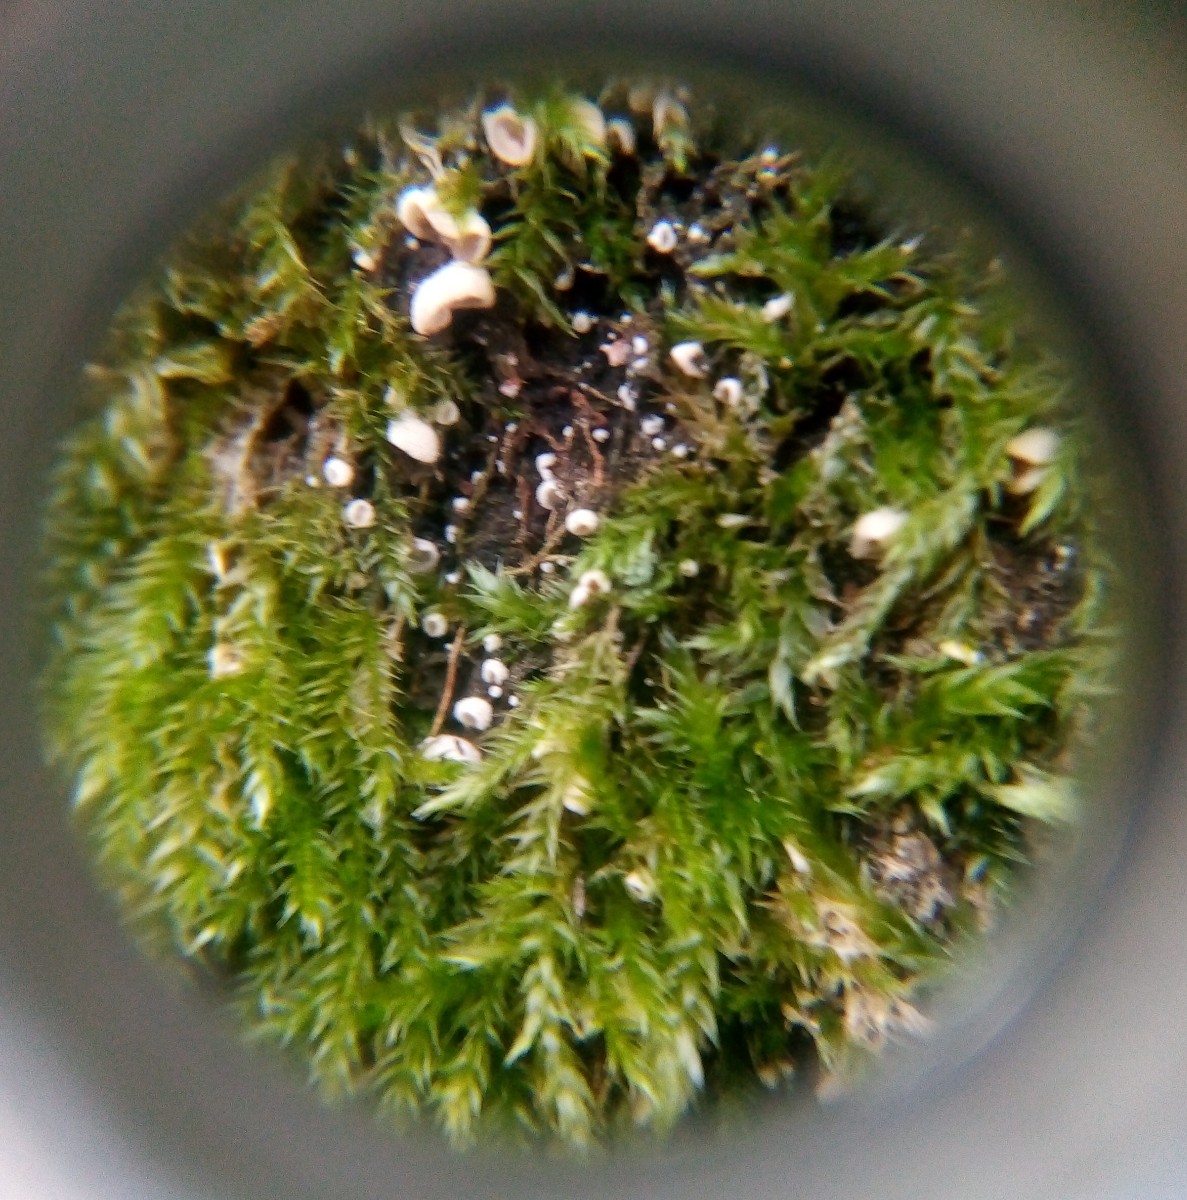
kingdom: Fungi
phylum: Basidiomycota
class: Agaricomycetes
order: Agaricales
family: Chromocyphellaceae
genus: Chromocyphella
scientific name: Chromocyphella muscicola
